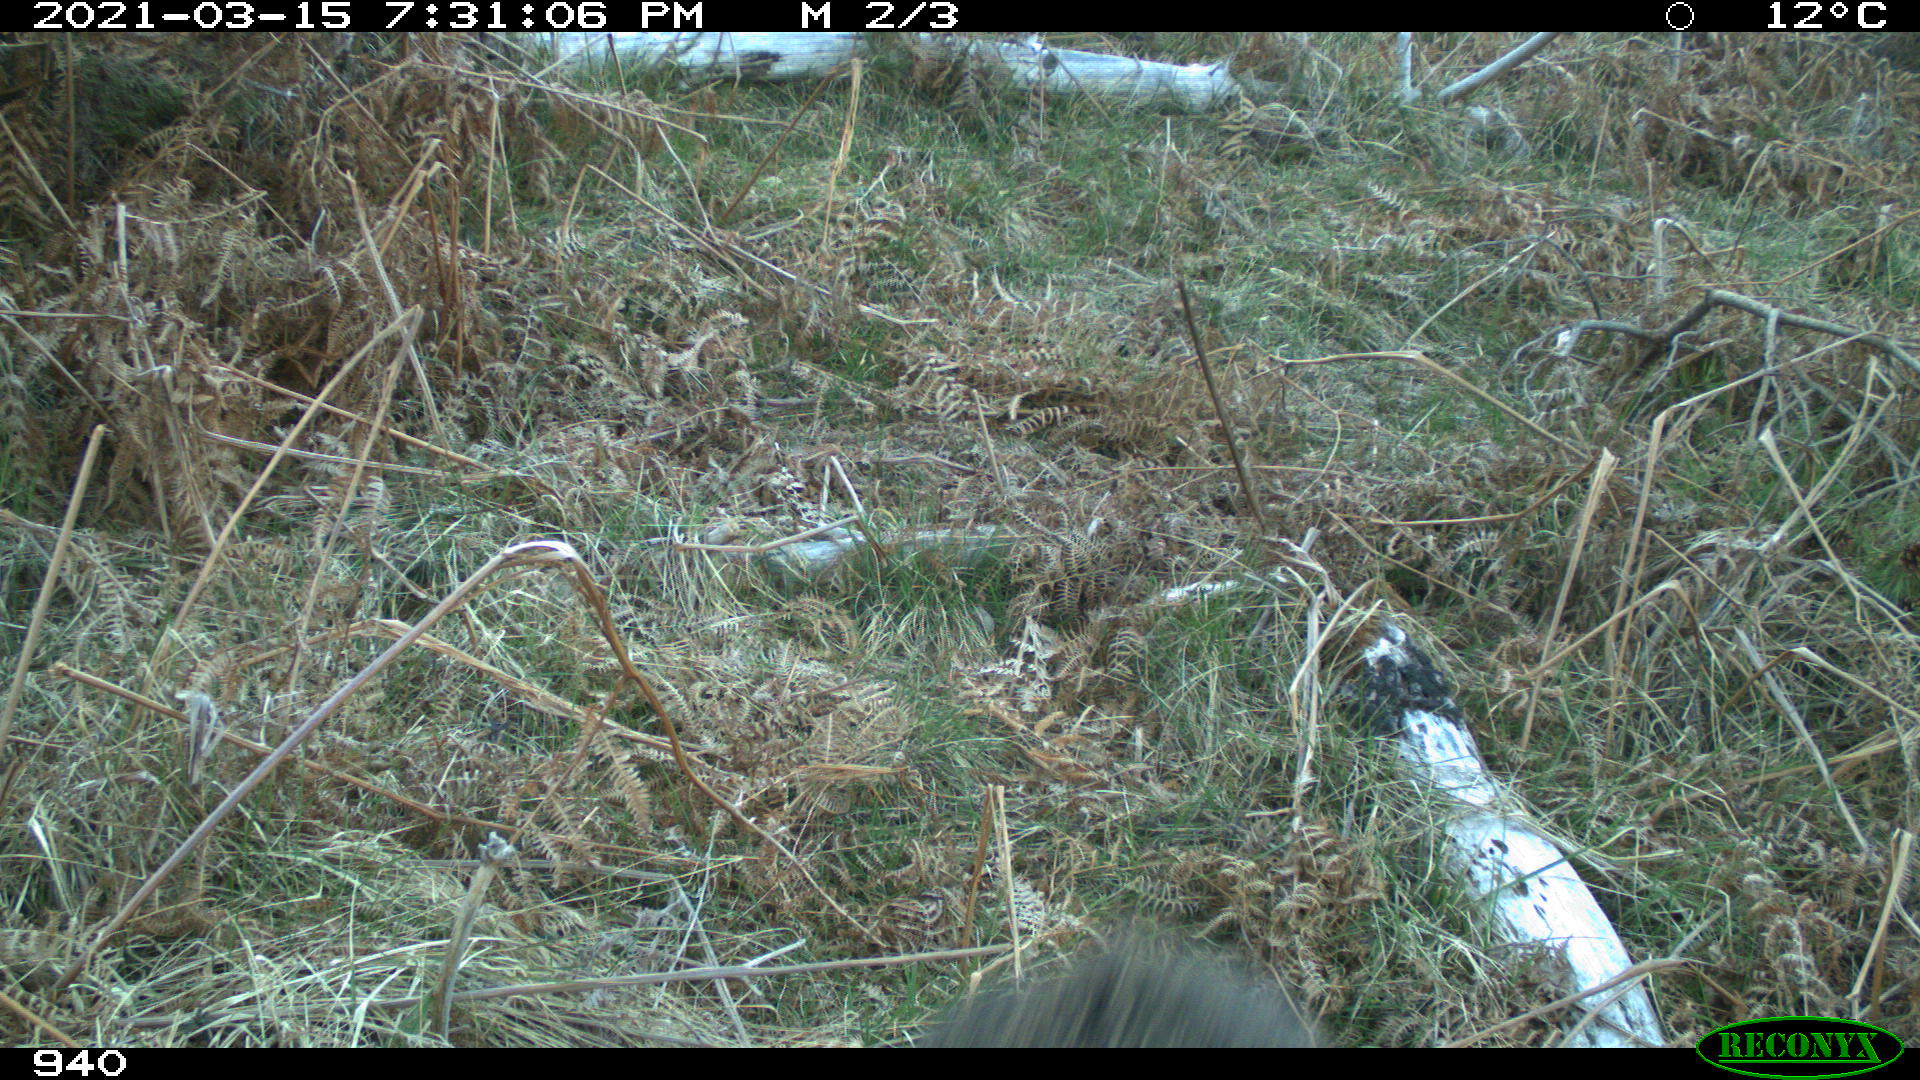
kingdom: Animalia
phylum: Chordata
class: Mammalia
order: Artiodactyla
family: Suidae
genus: Sus
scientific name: Sus scrofa
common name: Wild boar
